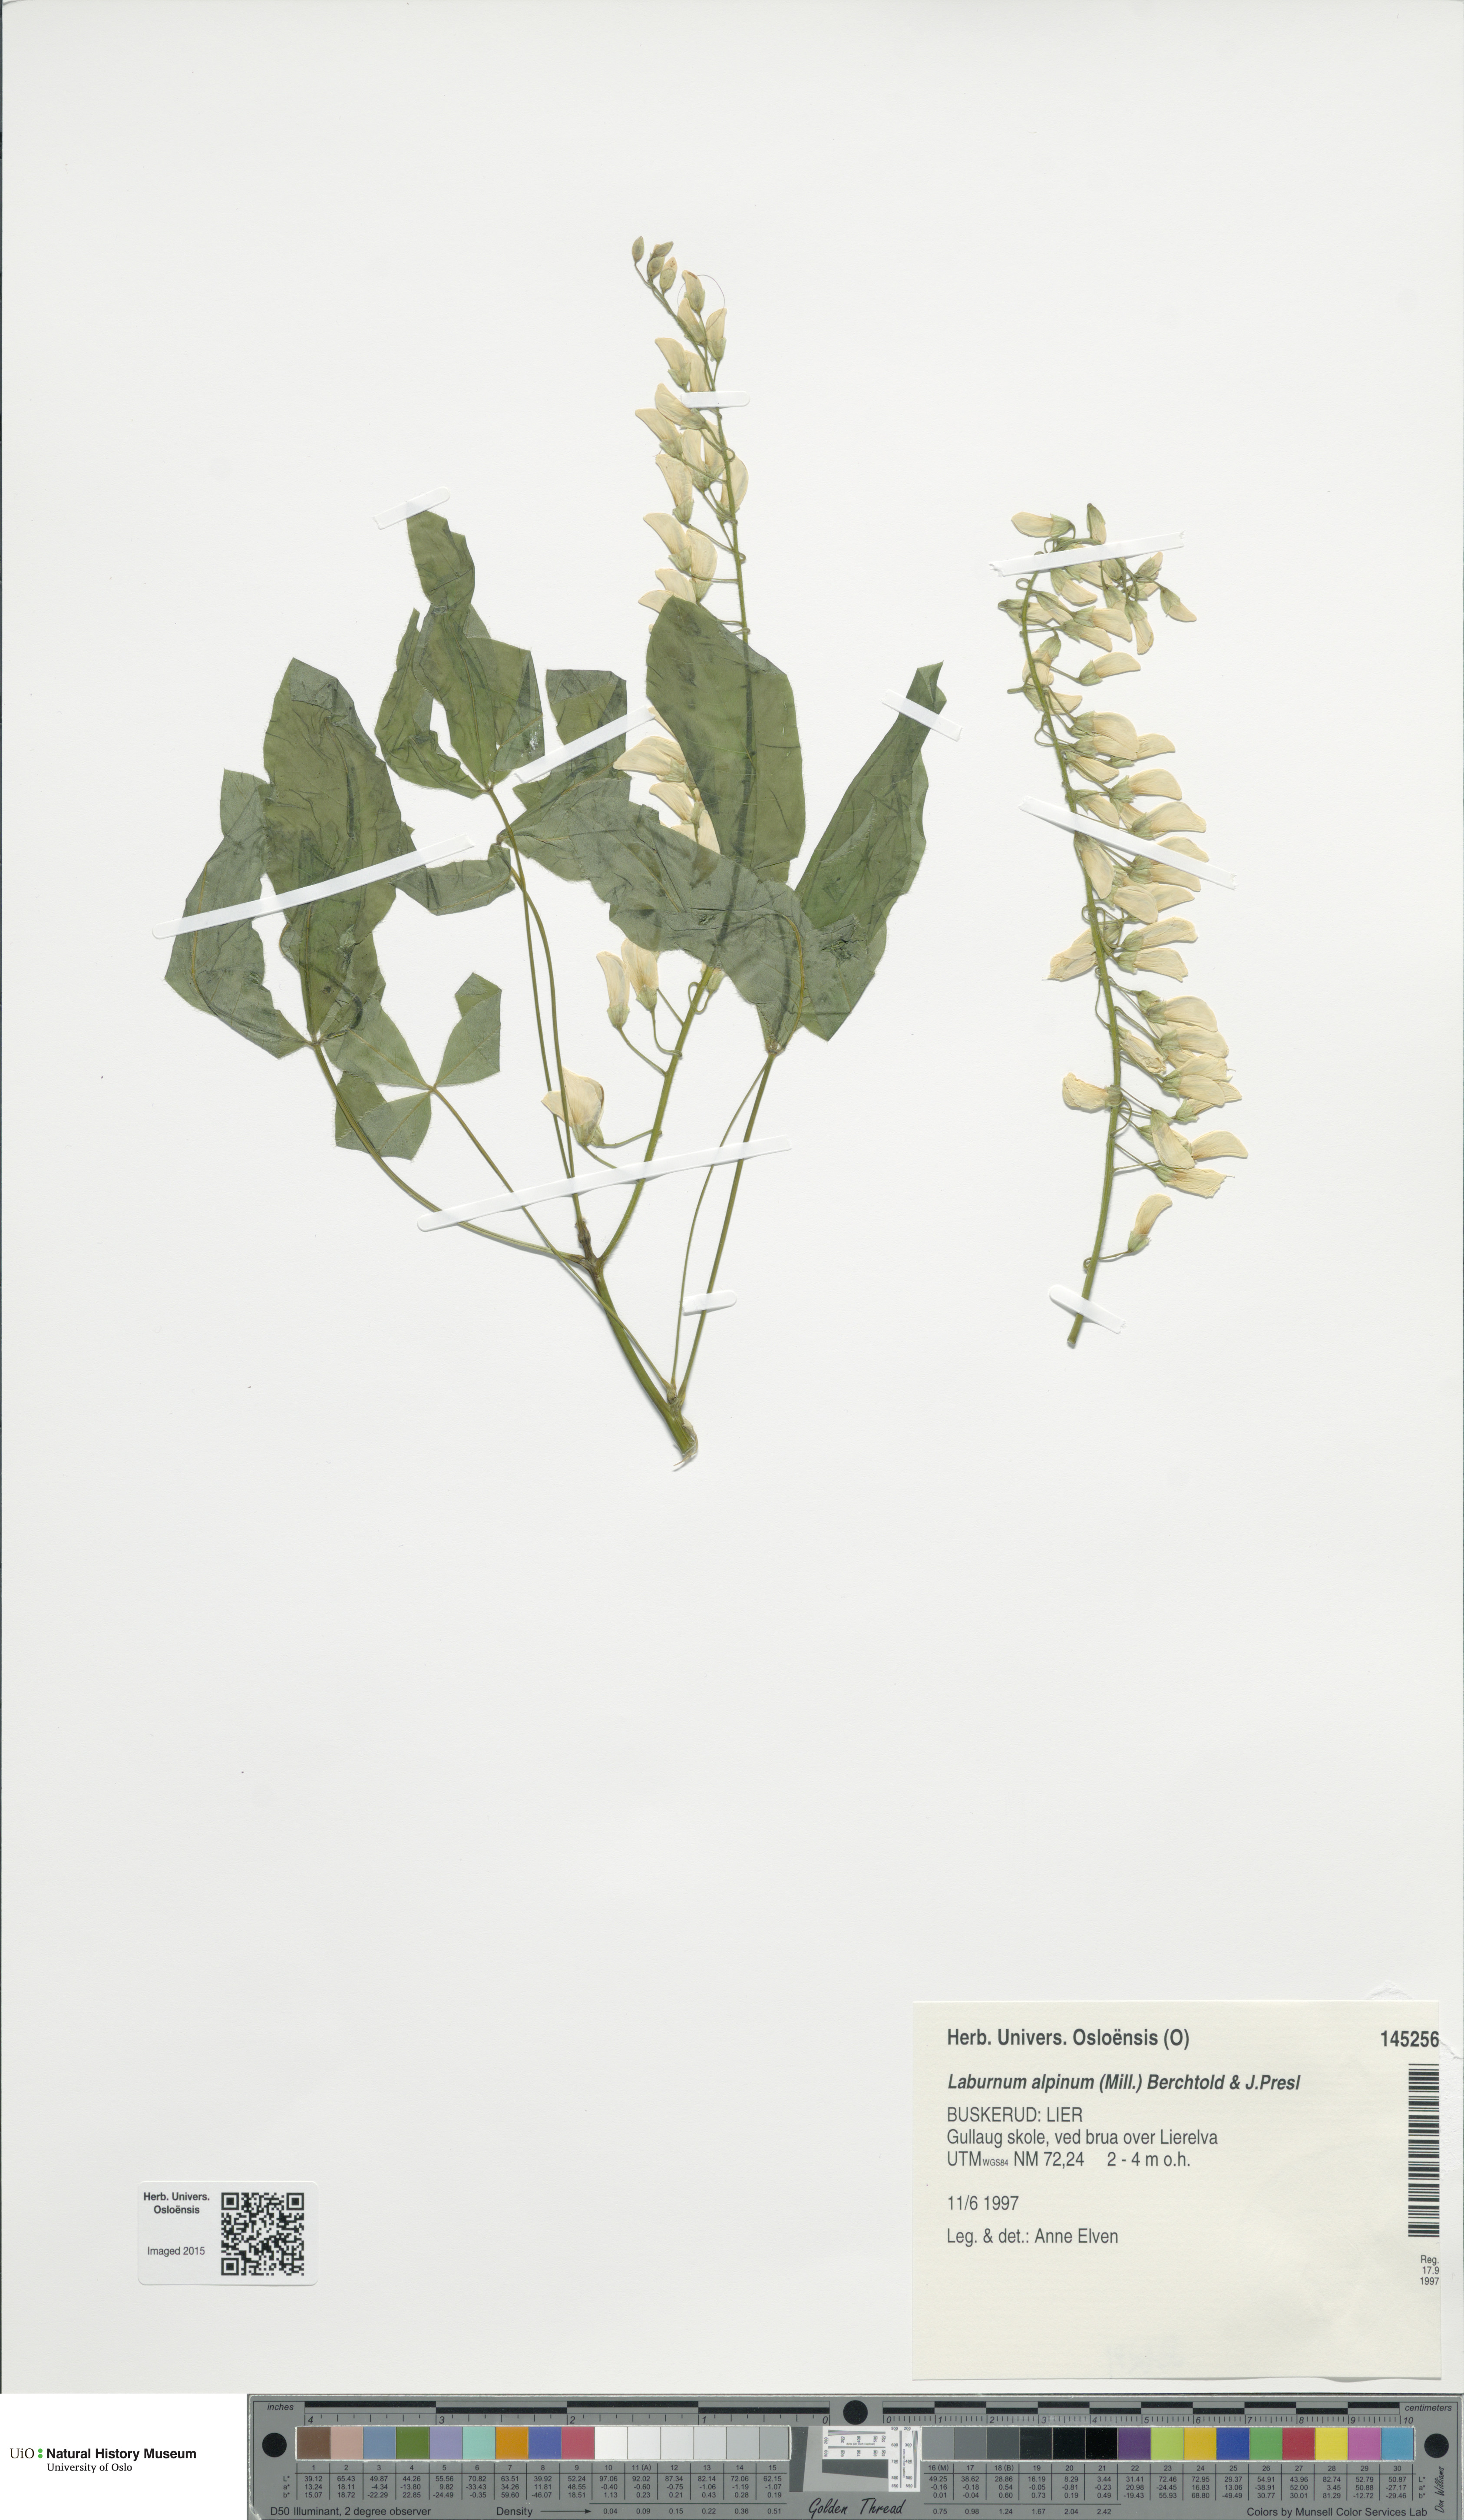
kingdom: Plantae
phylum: Tracheophyta
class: Magnoliopsida
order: Fabales
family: Fabaceae
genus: Laburnum
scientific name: Laburnum alpinum
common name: Scottish laburnum
